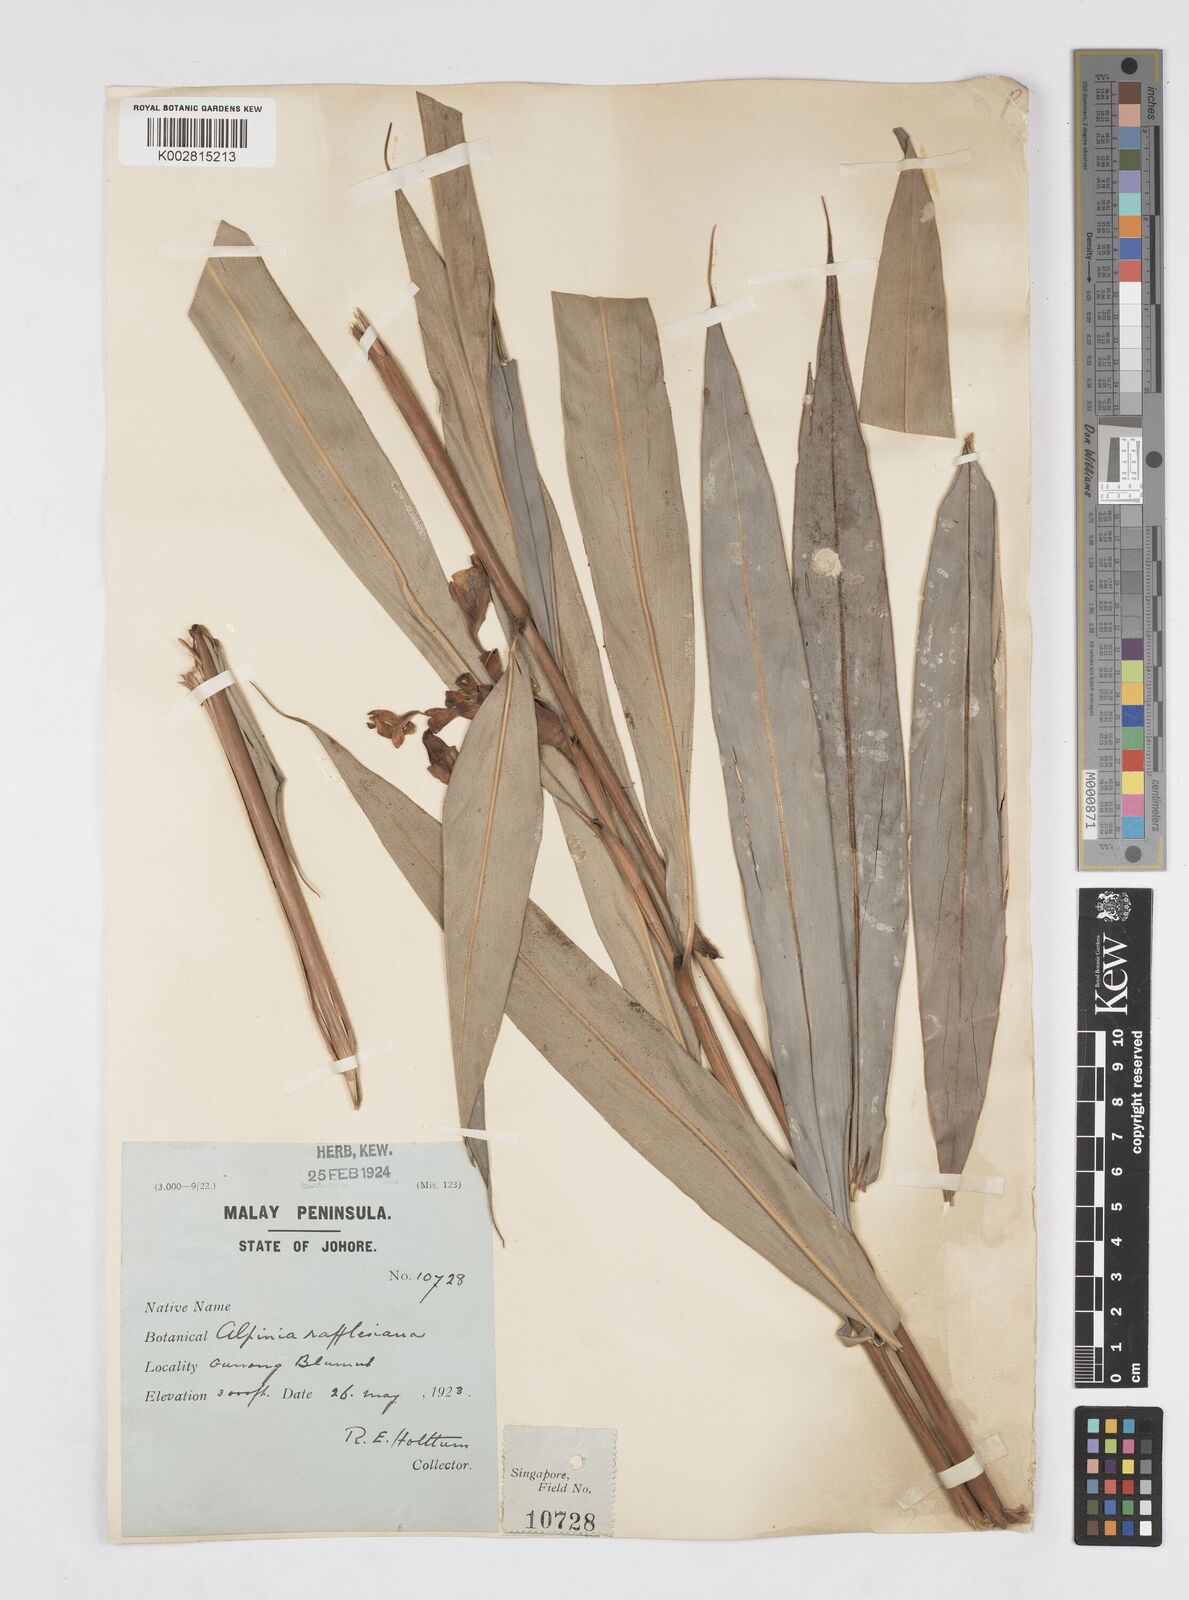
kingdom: Plantae
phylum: Tracheophyta
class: Liliopsida
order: Zingiberales
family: Zingiberaceae
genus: Alpinia
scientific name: Alpinia rafflesiana
